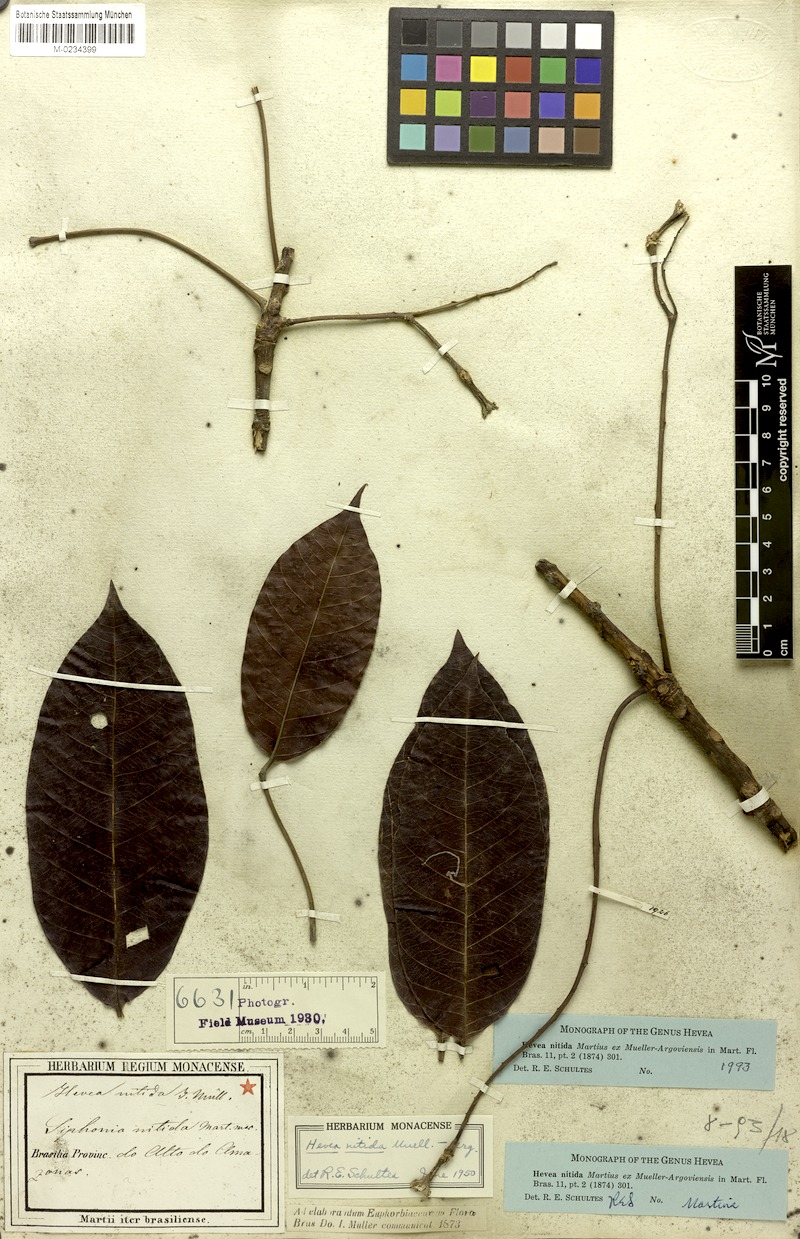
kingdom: Plantae
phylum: Tracheophyta
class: Magnoliopsida
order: Malpighiales
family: Euphorbiaceae
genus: Hevea
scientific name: Hevea nitida
